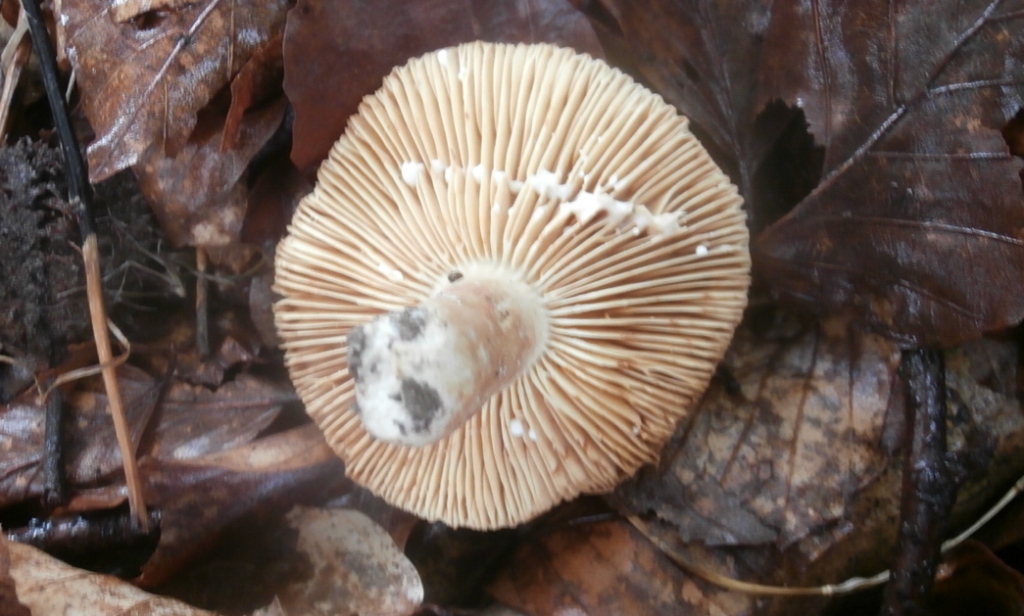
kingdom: Fungi
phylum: Basidiomycota
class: Agaricomycetes
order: Russulales
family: Russulaceae
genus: Lactarius
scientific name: Lactarius ruginosus
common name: gråbrun mælkehat
